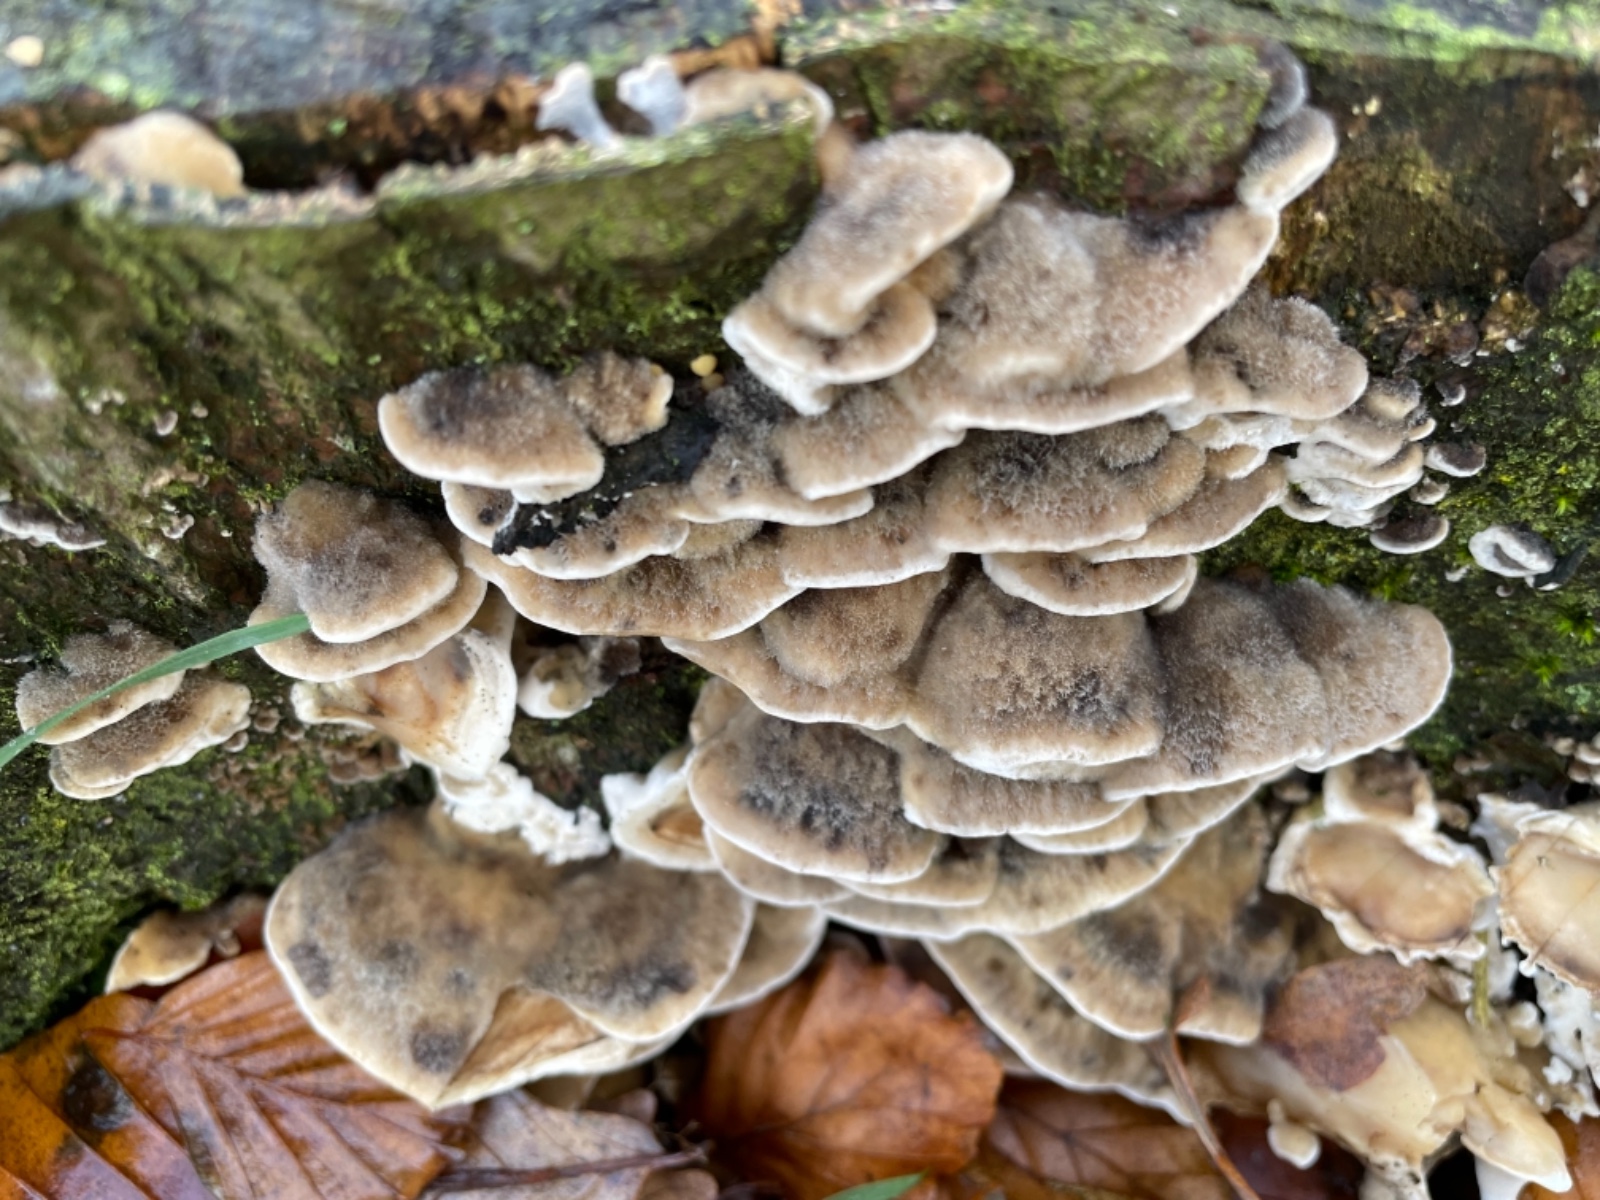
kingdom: Fungi
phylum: Basidiomycota
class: Agaricomycetes
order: Polyporales
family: Phanerochaetaceae
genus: Bjerkandera
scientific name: Bjerkandera adusta
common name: sveden sodporesvamp
